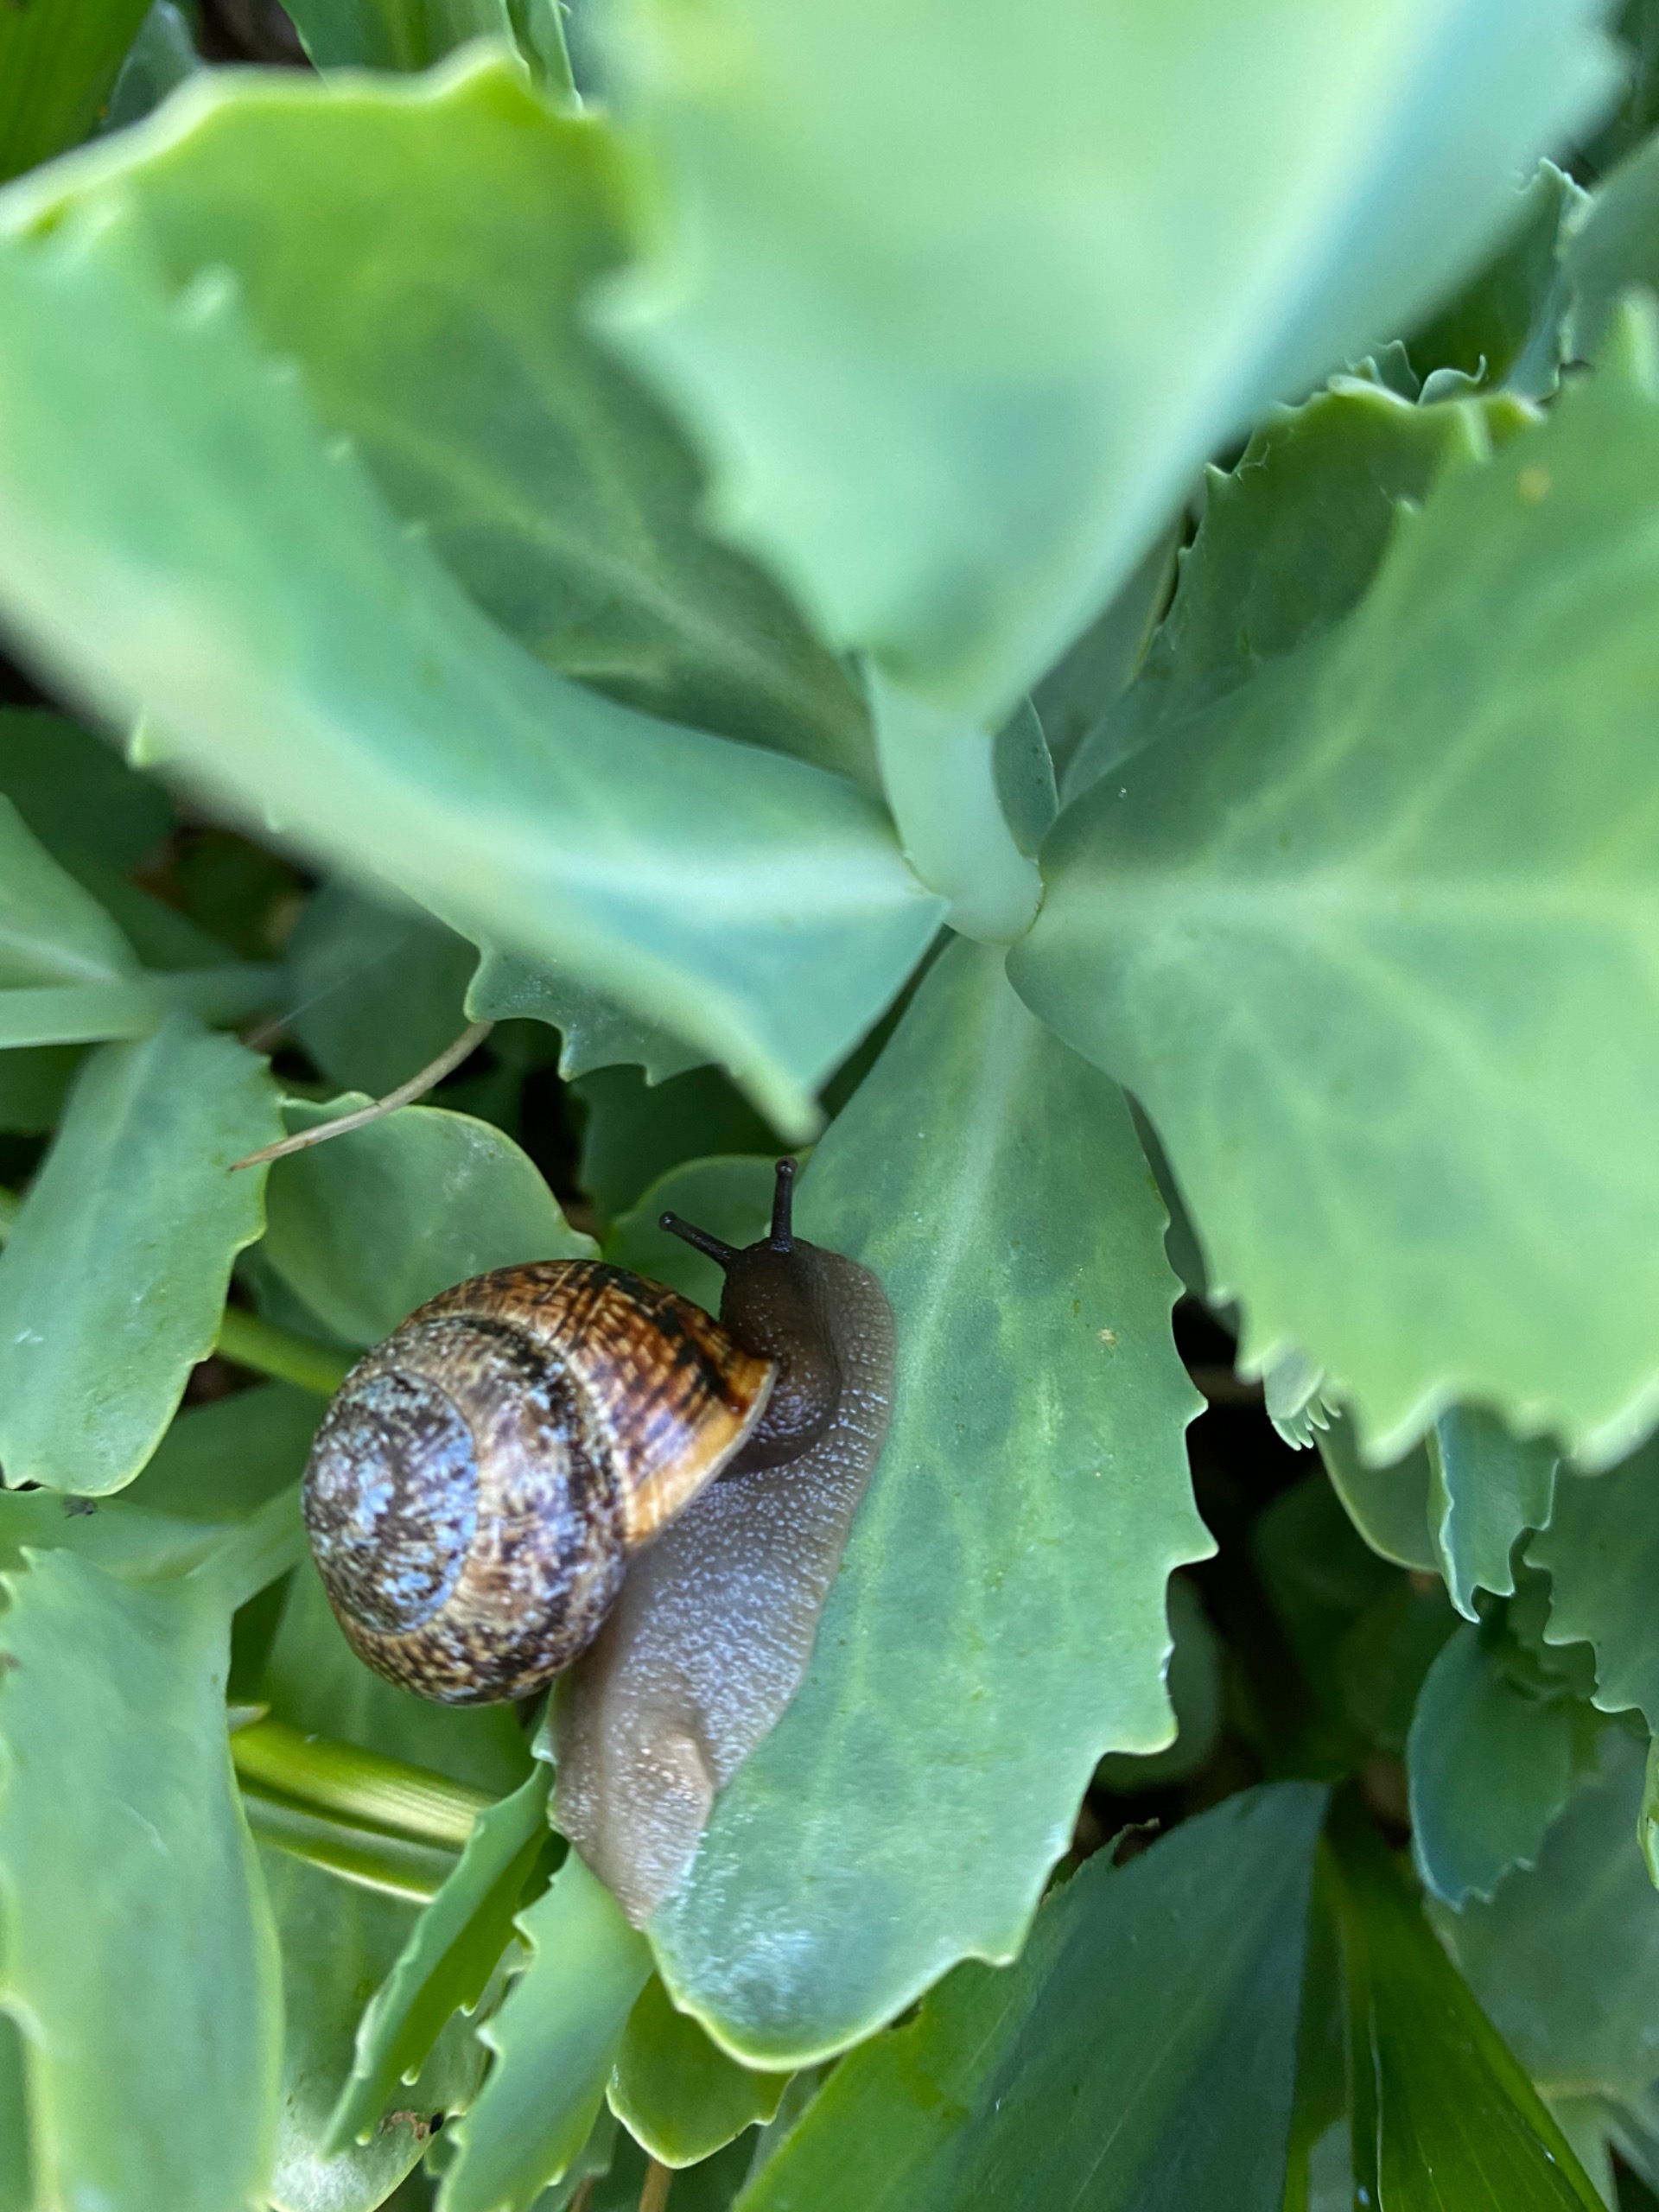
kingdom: Animalia
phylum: Mollusca
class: Gastropoda
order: Stylommatophora
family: Helicidae
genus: Arianta
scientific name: Arianta arbustorum
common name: Kratsnegl
